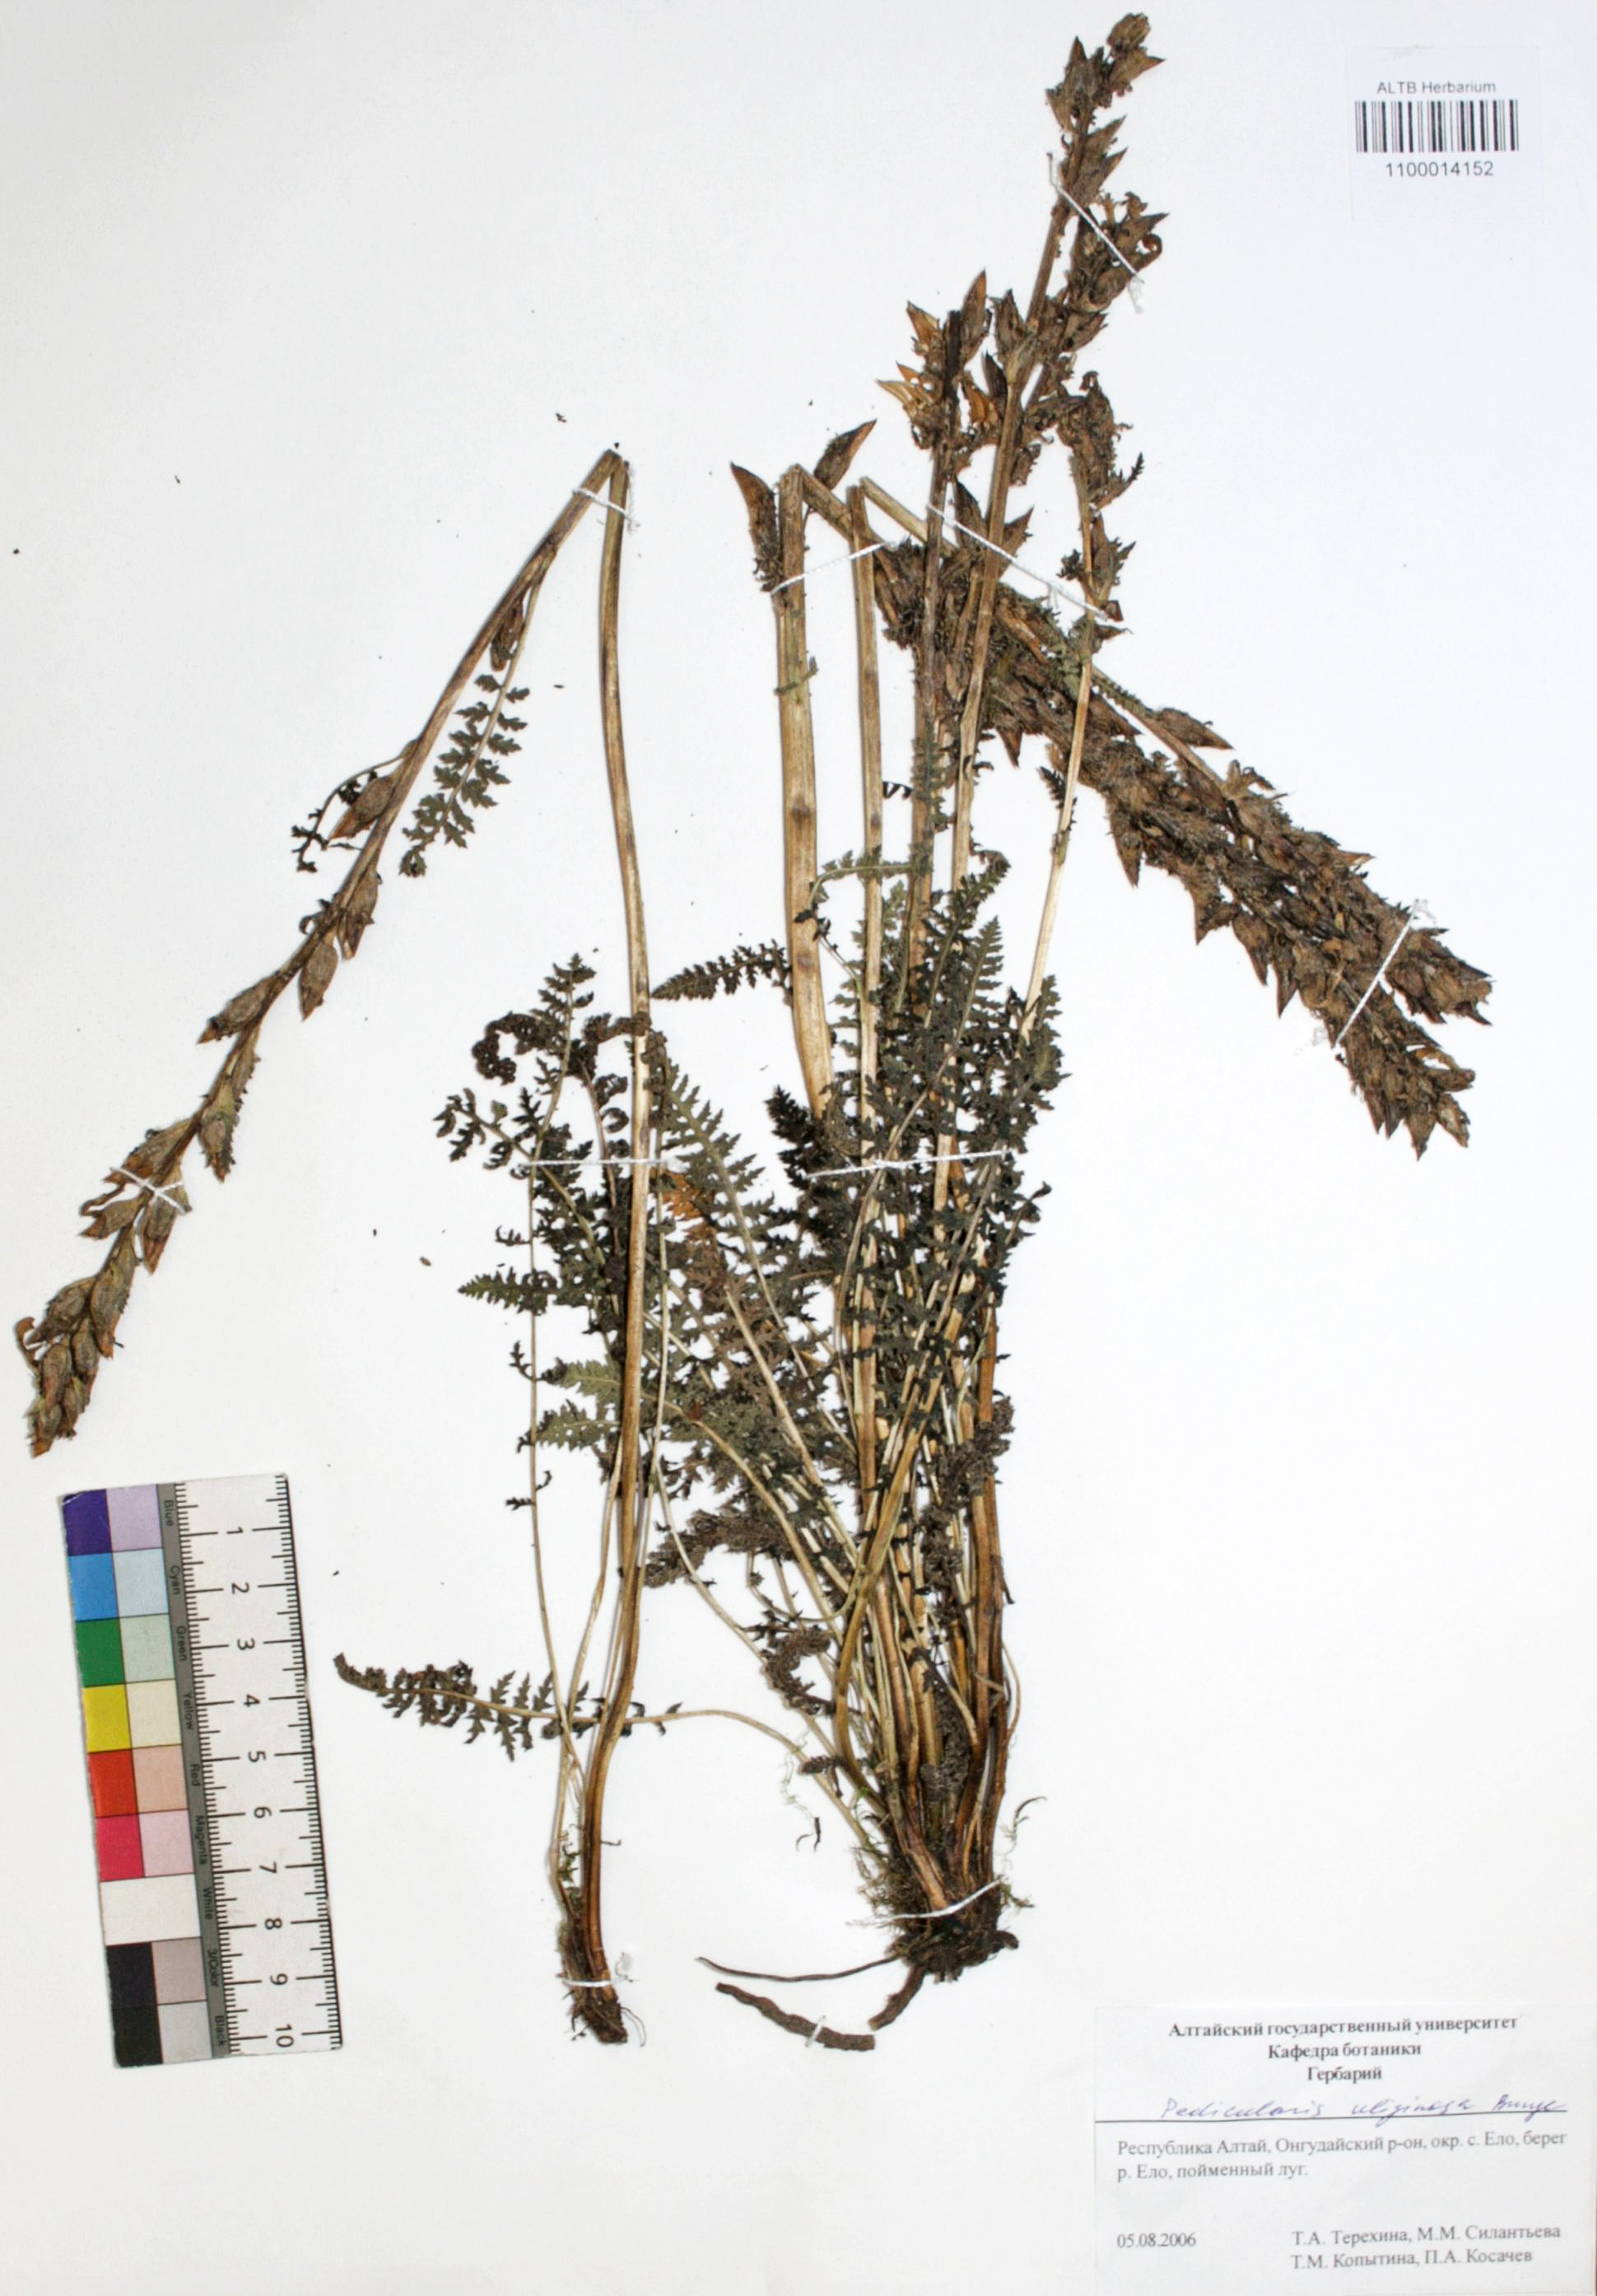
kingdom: Plantae
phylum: Tracheophyta
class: Magnoliopsida
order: Lamiales
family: Orobanchaceae
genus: Pedicularis
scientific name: Pedicularis uliginosa
